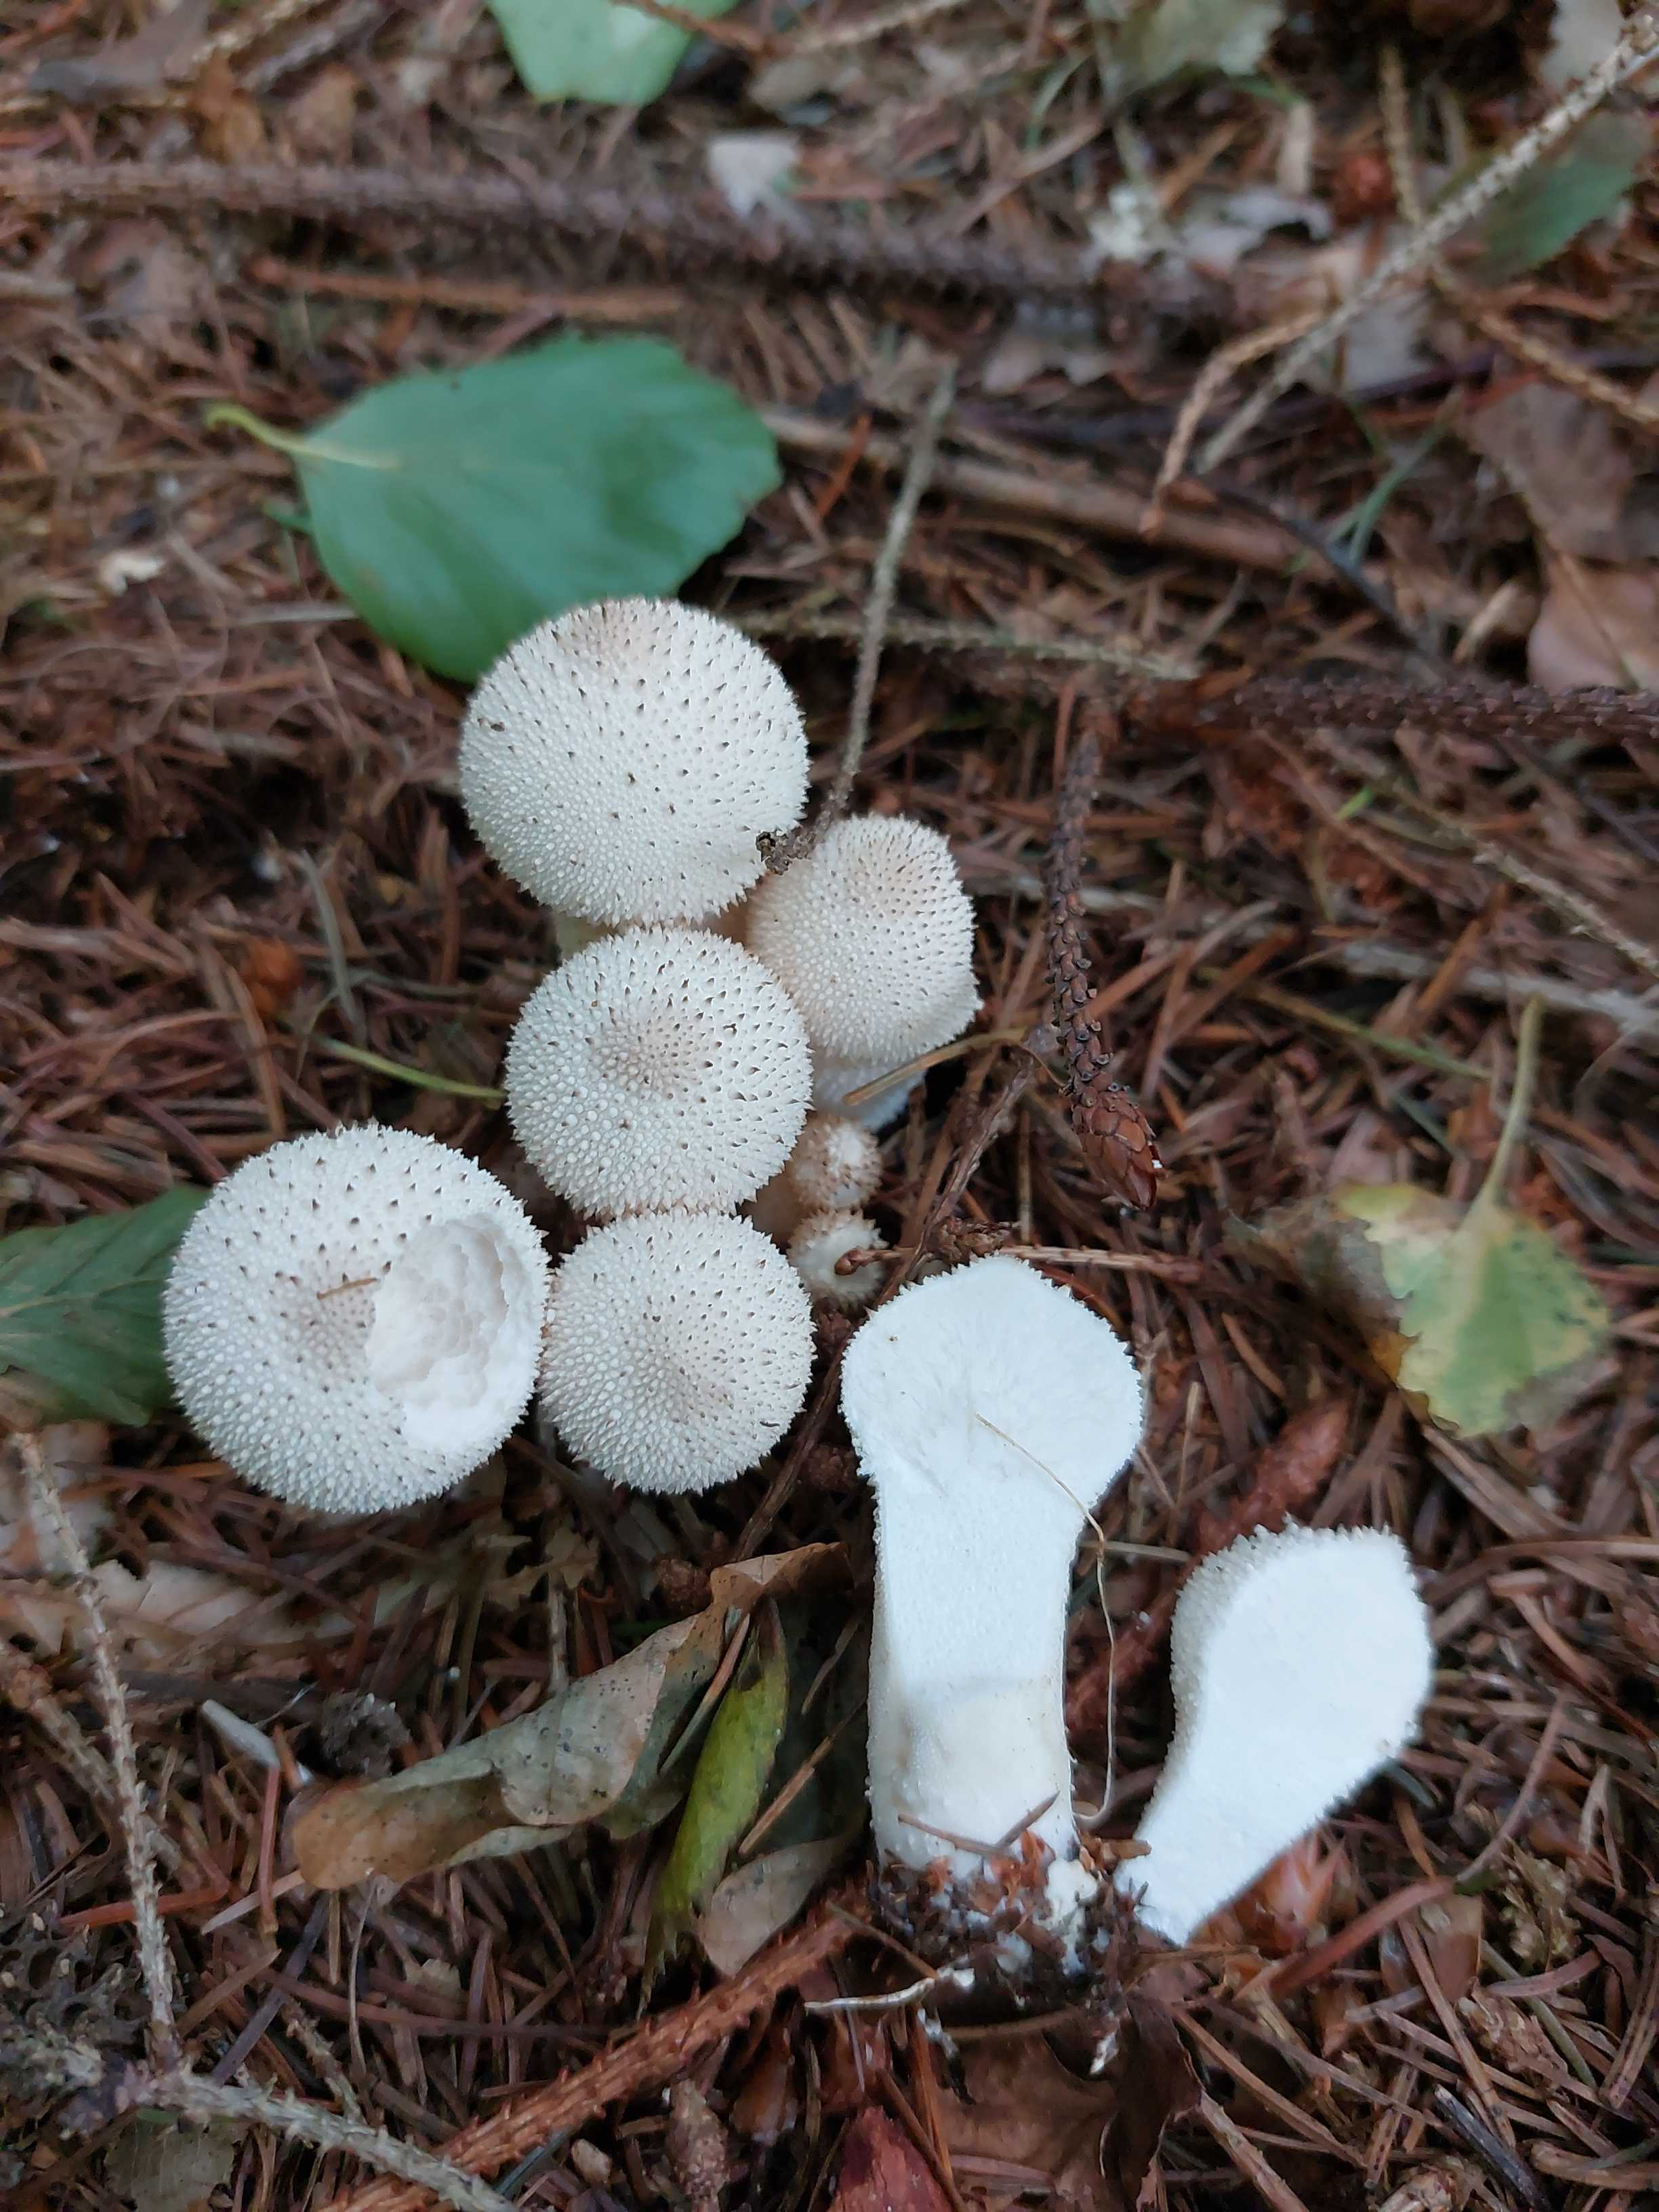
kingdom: Fungi
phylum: Basidiomycota
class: Agaricomycetes
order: Agaricales
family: Lycoperdaceae
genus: Lycoperdon
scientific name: Lycoperdon perlatum
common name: krystal-støvbold
